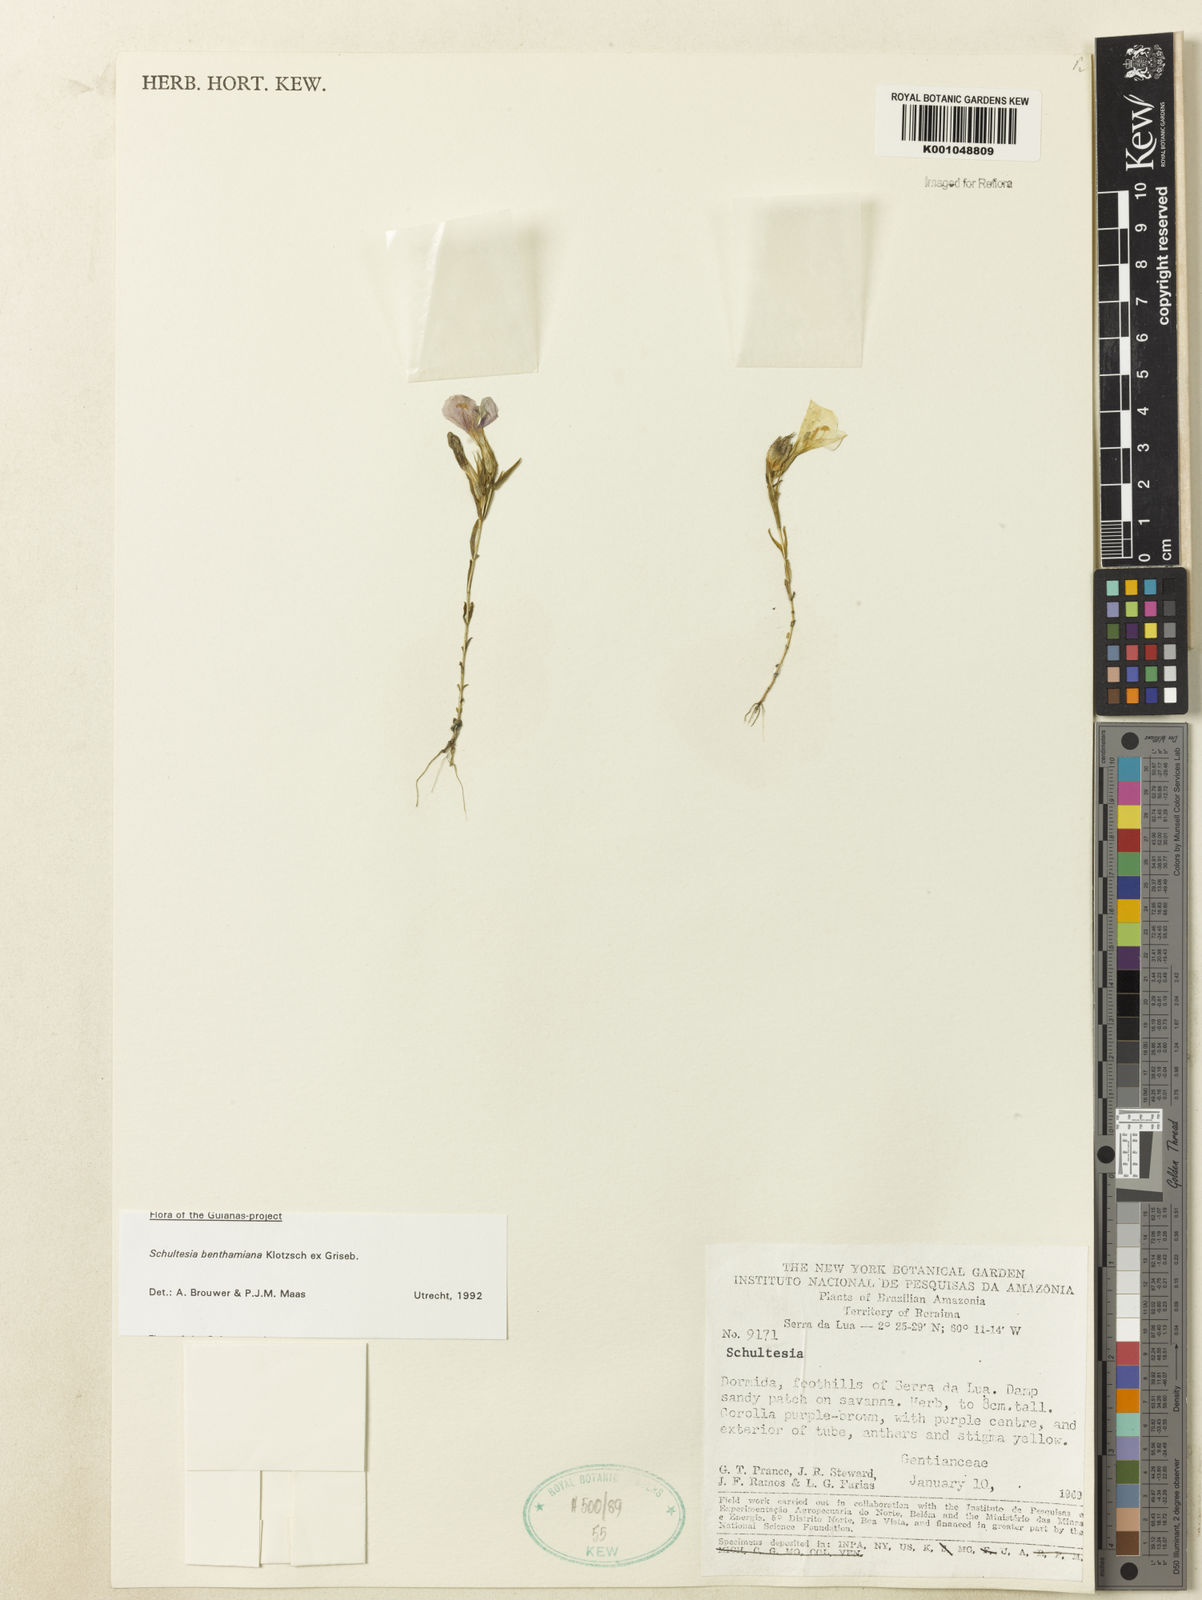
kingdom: Plantae
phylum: Tracheophyta
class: Magnoliopsida
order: Gentianales
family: Gentianaceae
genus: Schultesia
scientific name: Schultesia benthamiana
